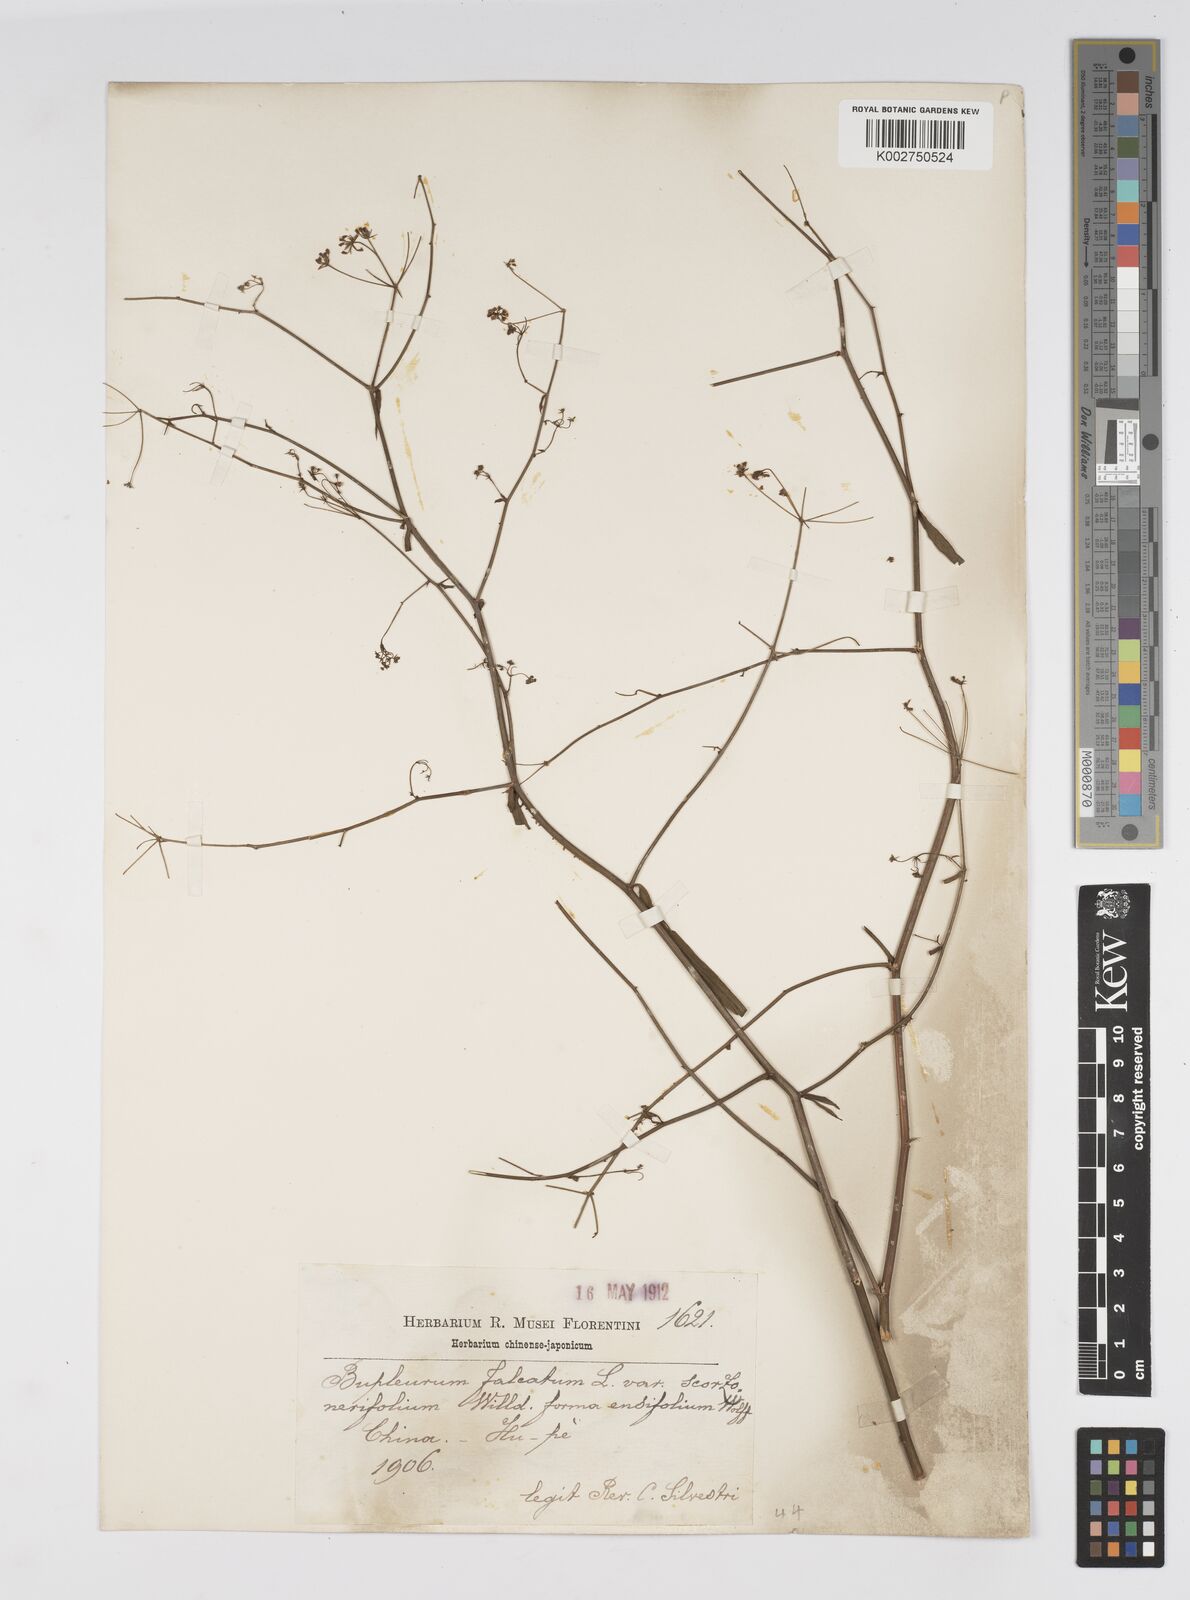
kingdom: Plantae
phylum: Tracheophyta
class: Magnoliopsida
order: Apiales
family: Apiaceae
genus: Bupleurum
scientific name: Bupleurum scorzonerifolium
